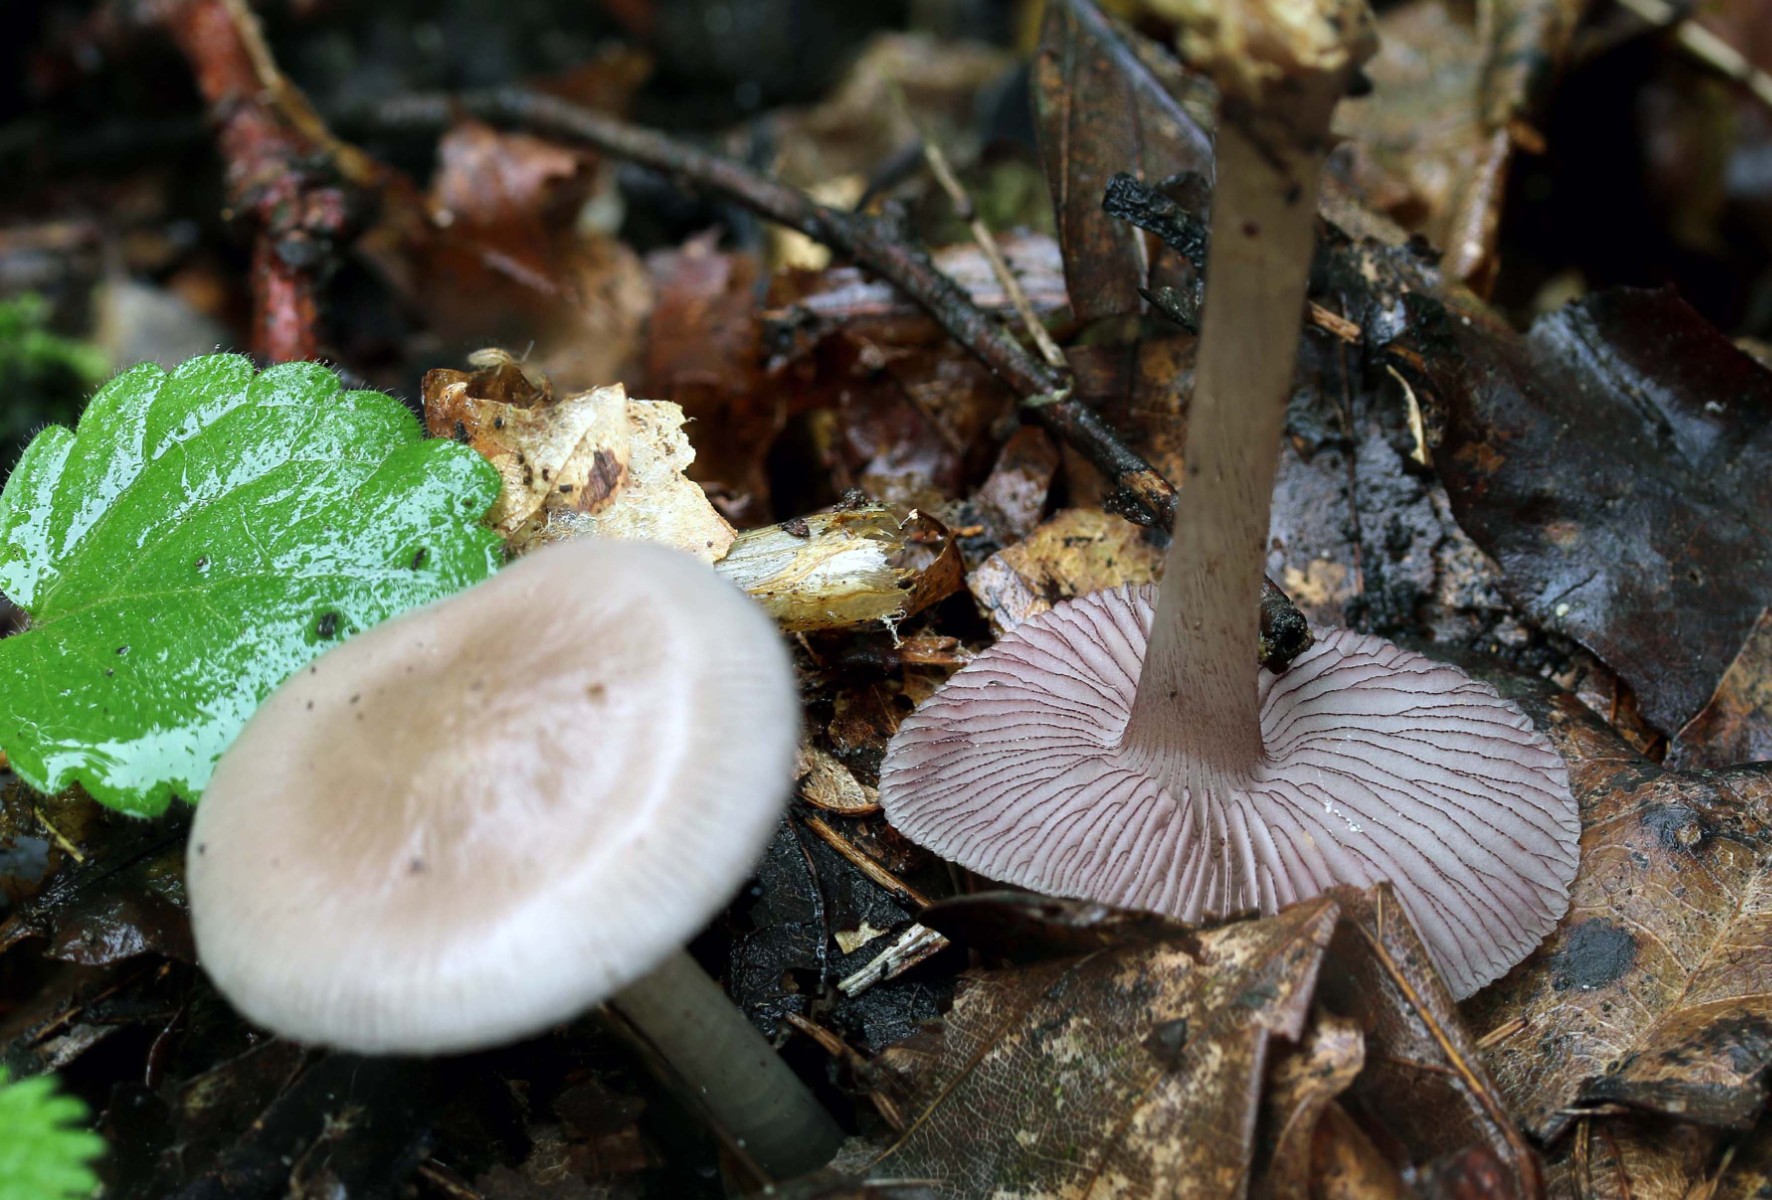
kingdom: Fungi
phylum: Basidiomycota
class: Agaricomycetes
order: Agaricales
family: Mycenaceae
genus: Mycena
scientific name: Mycena pelianthina
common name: mørkbladet huesvamp
